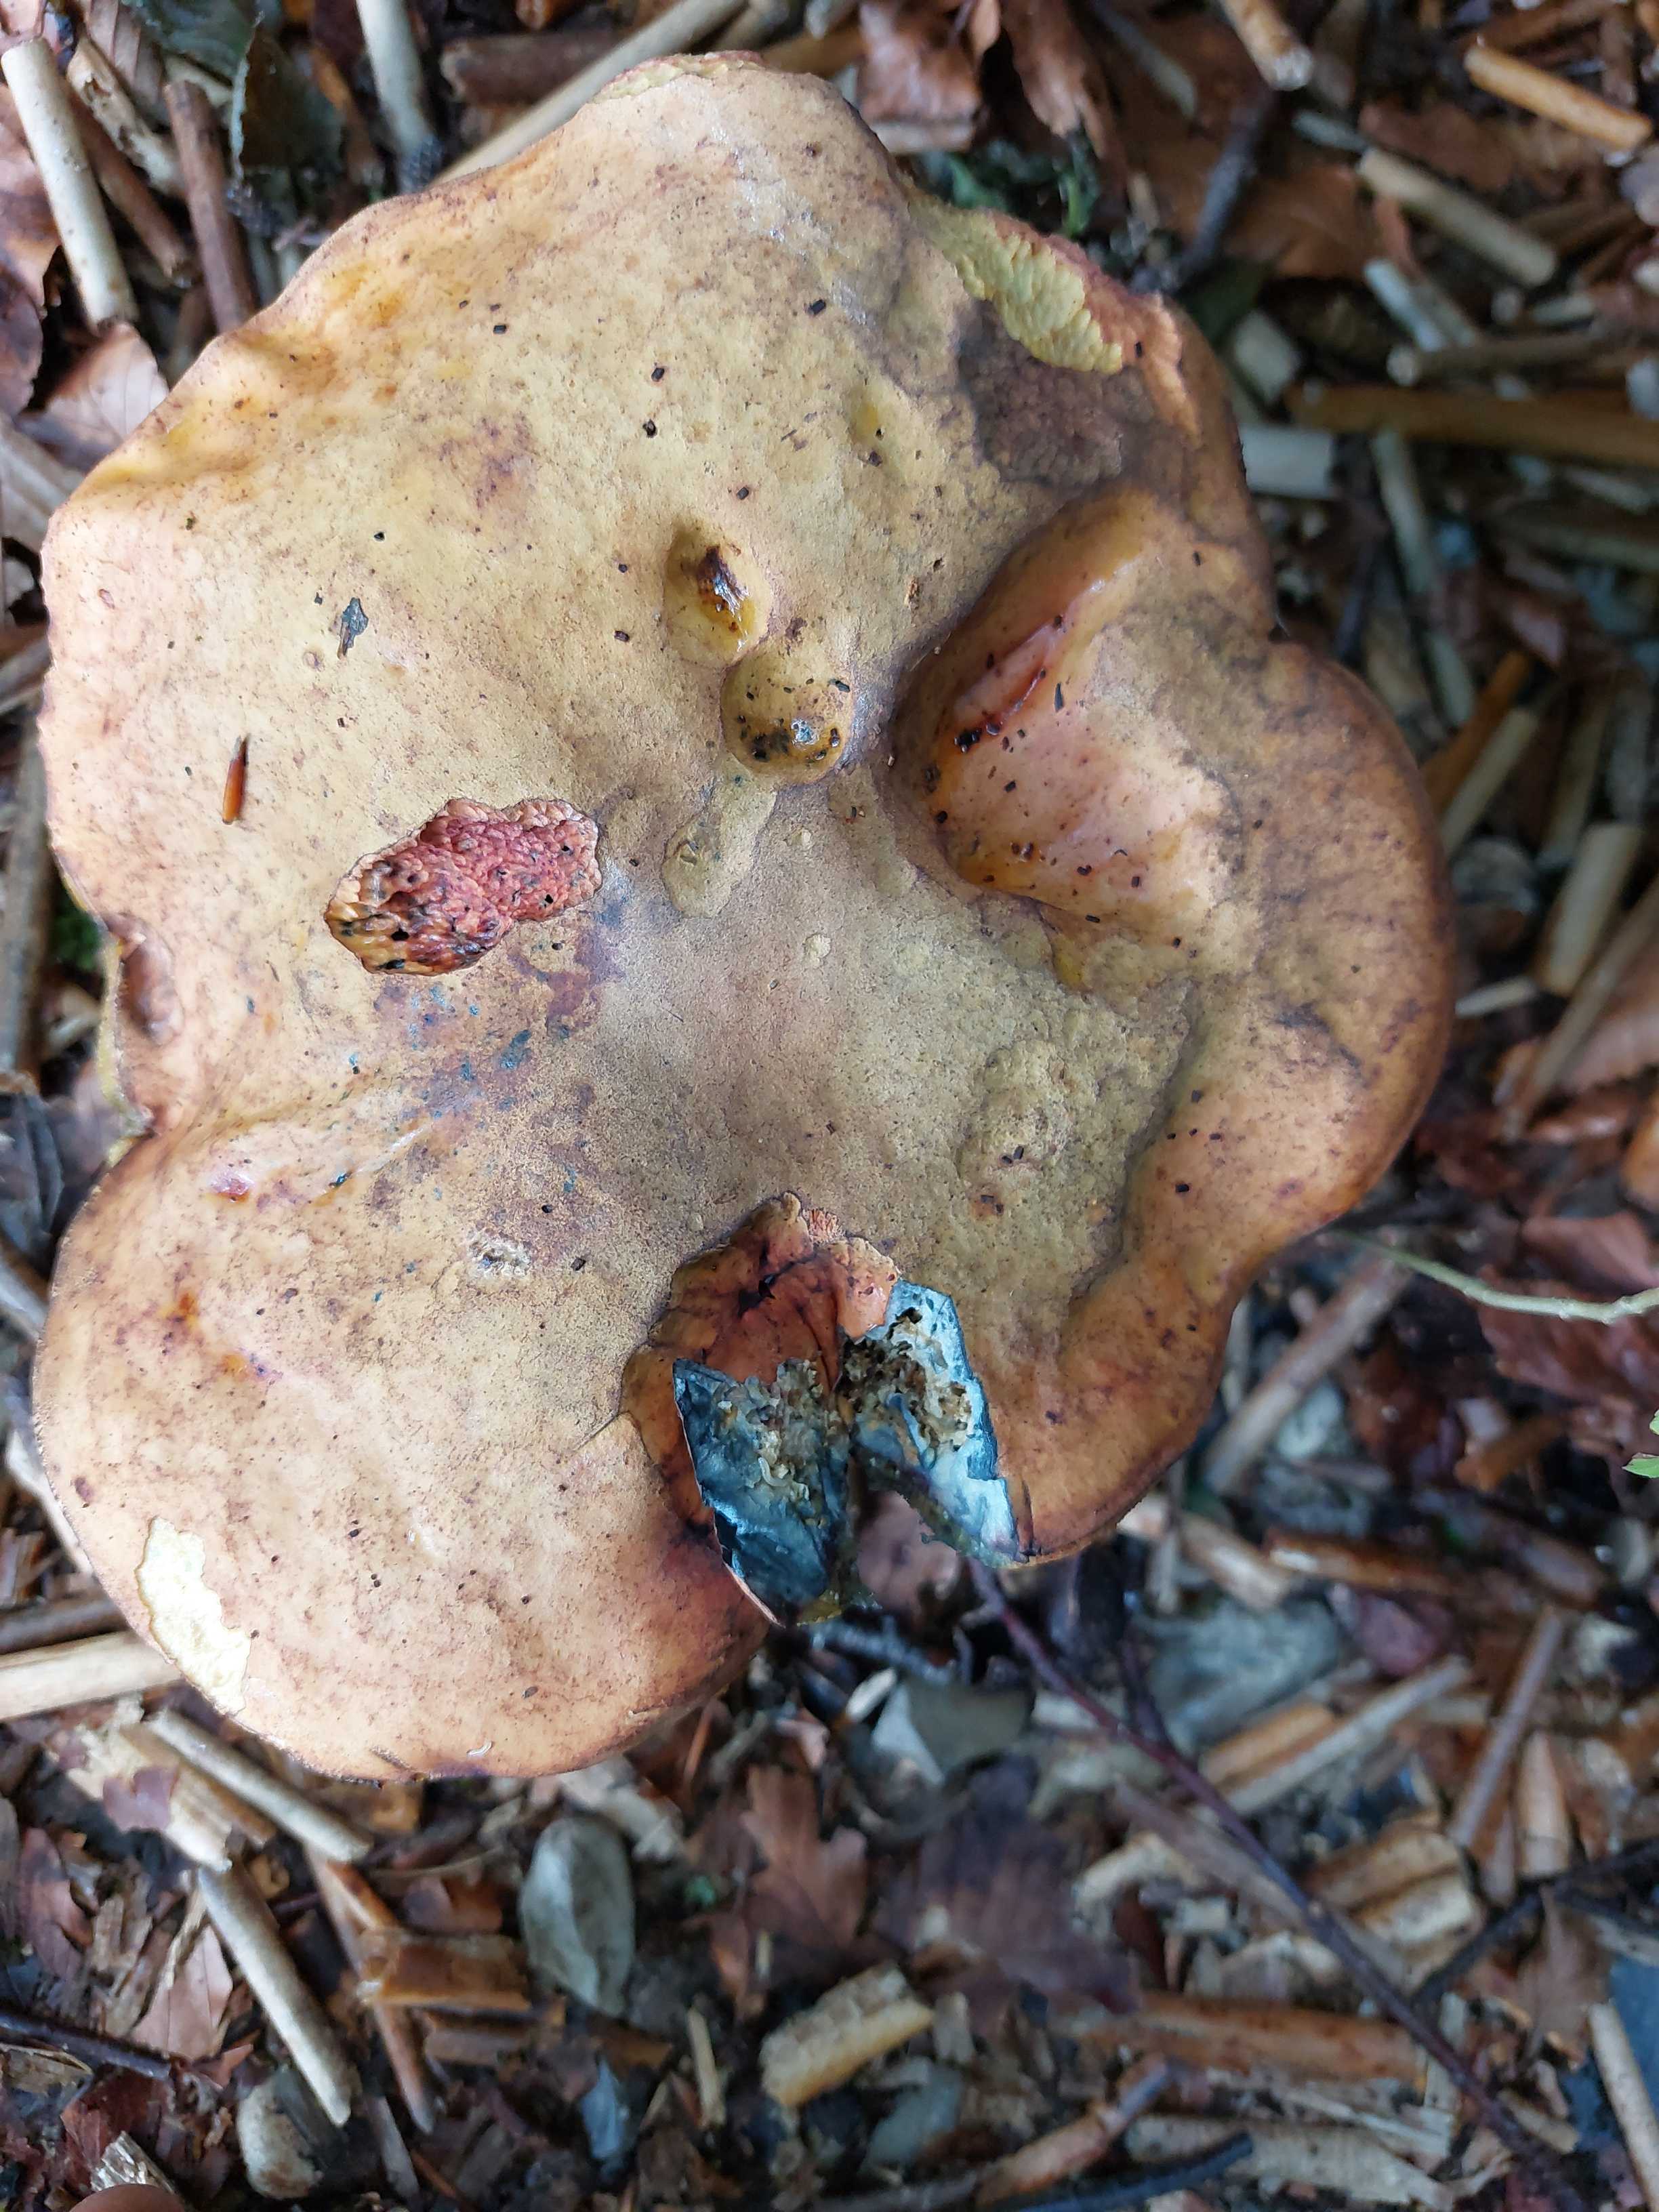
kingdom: Fungi
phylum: Basidiomycota
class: Agaricomycetes
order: Boletales
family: Boletaceae
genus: Cyanoboletus
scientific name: Cyanoboletus pulverulentus
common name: sortblånende rørhat
